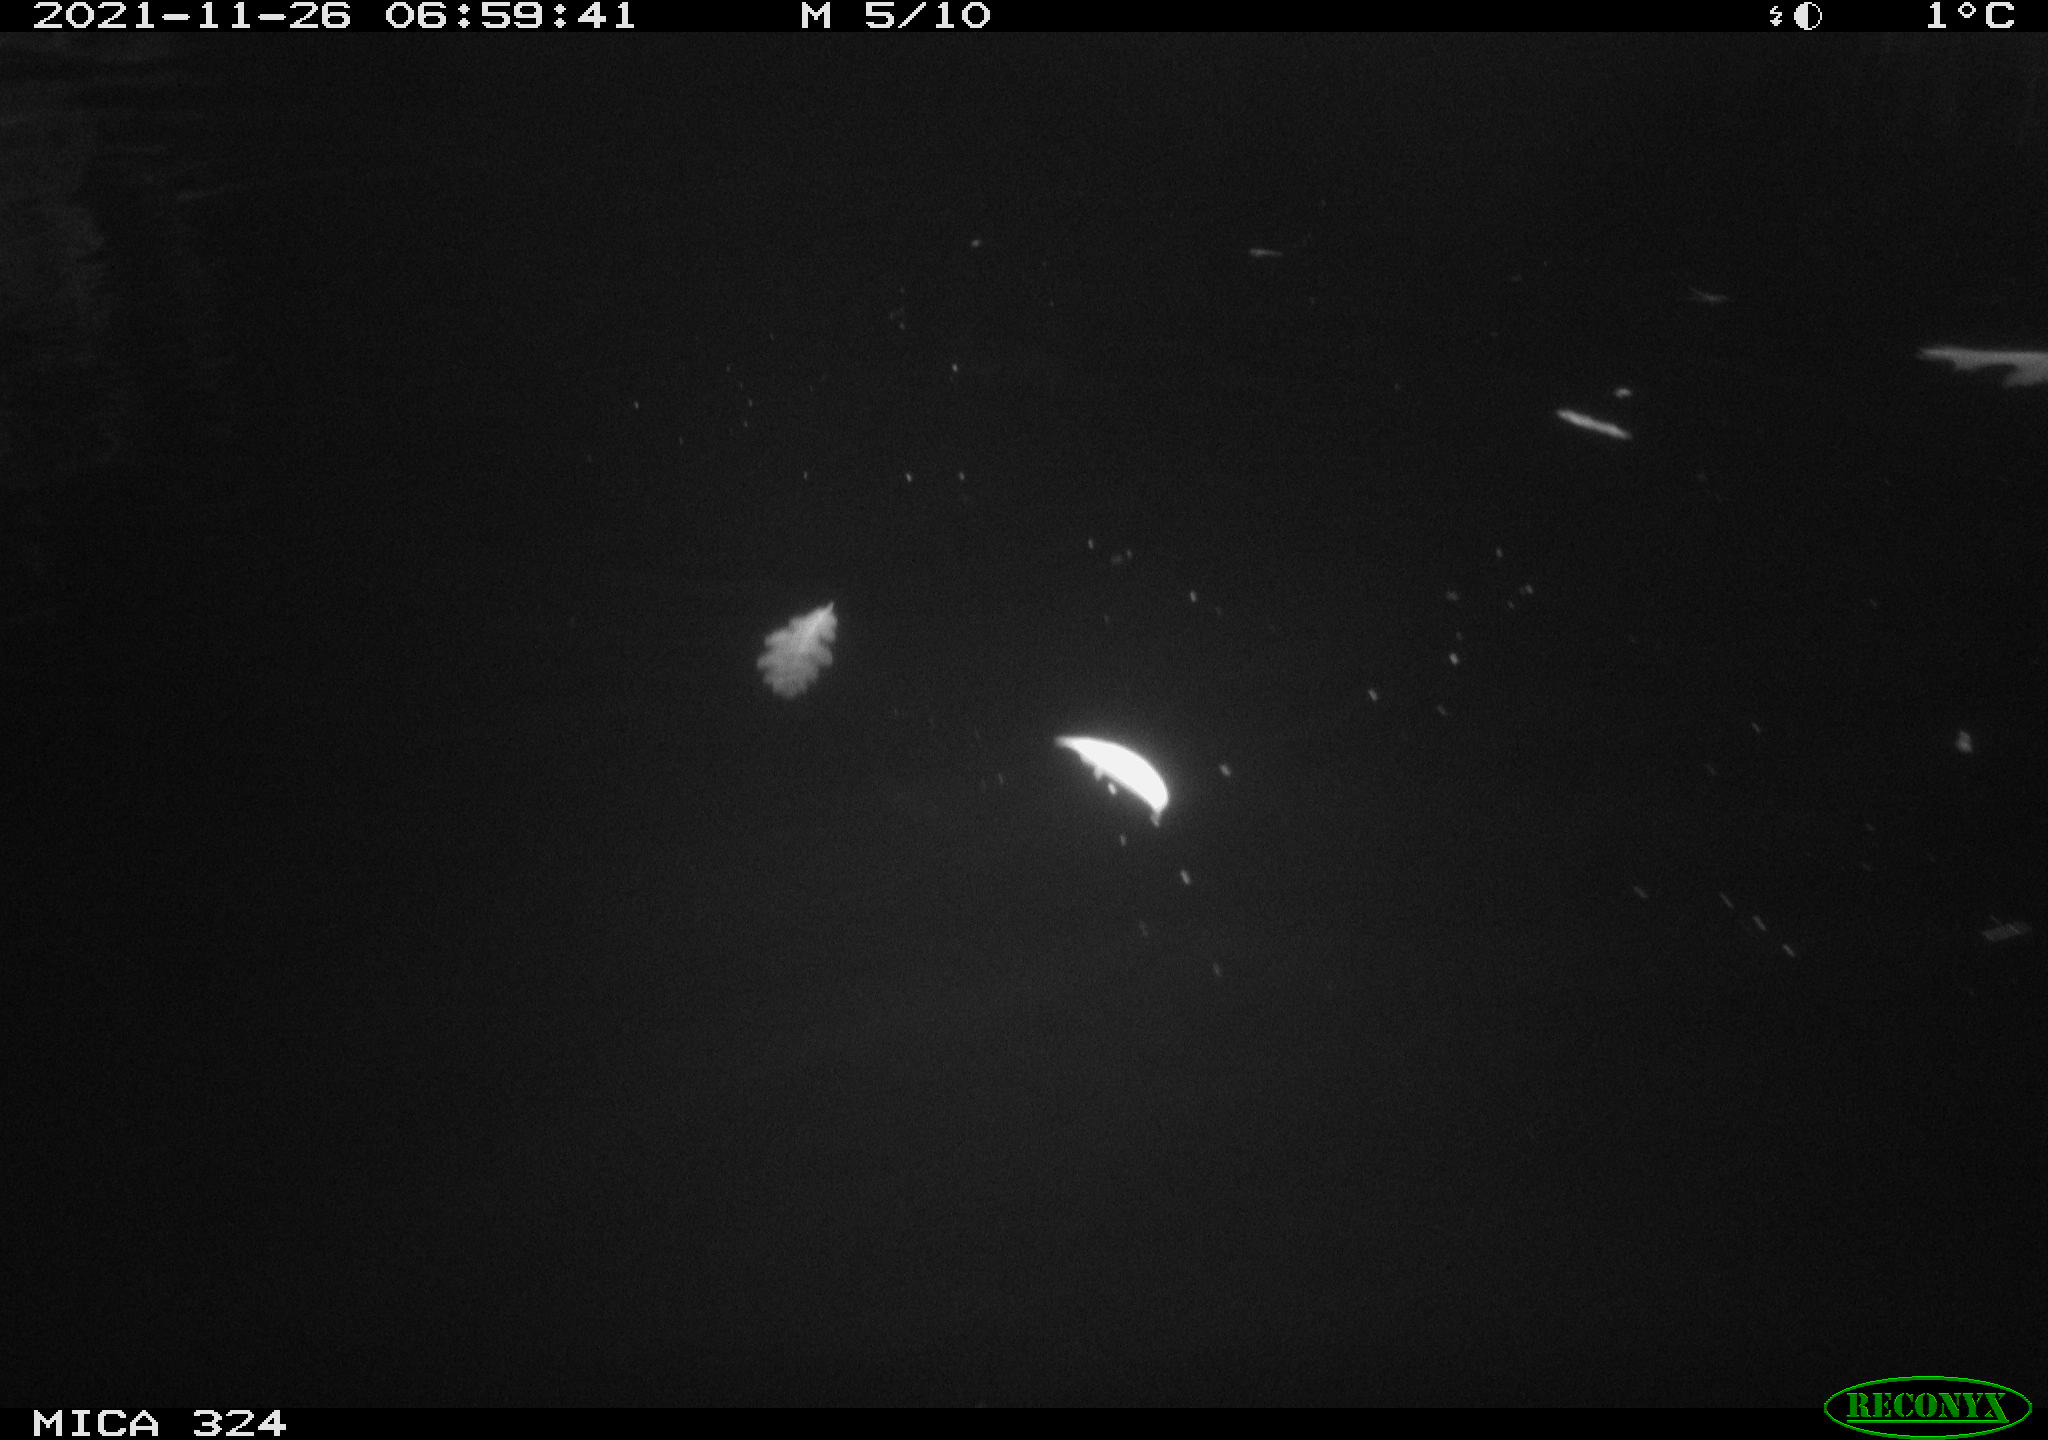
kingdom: Animalia
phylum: Chordata
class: Mammalia
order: Rodentia
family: Cricetidae
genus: Ondatra
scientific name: Ondatra zibethicus
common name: Muskrat
